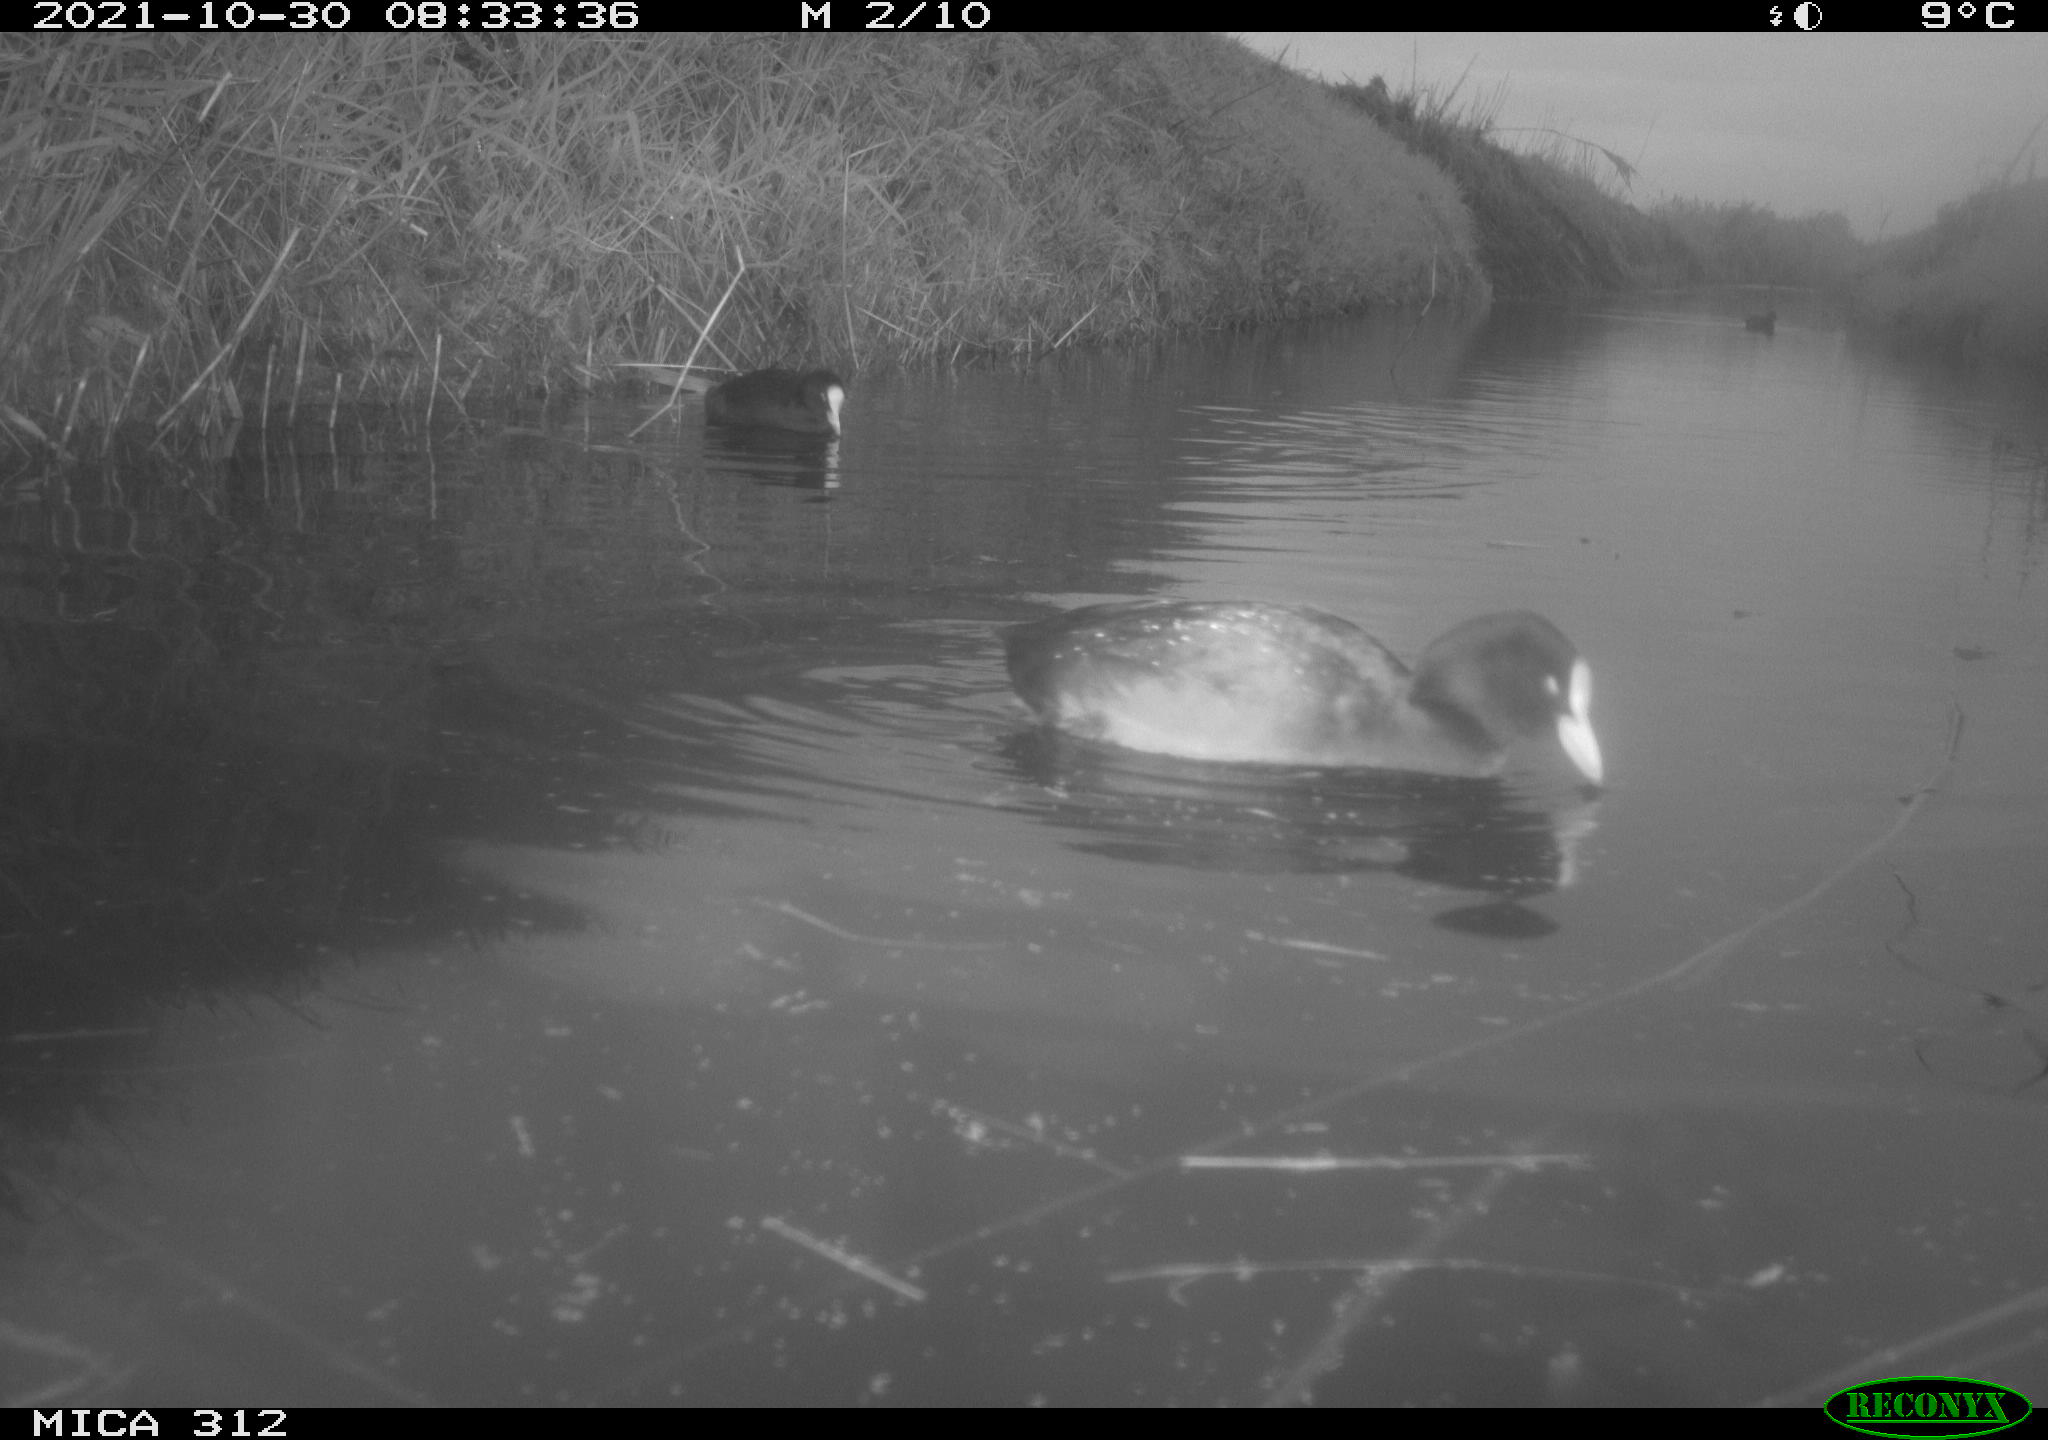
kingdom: Animalia
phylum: Chordata
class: Aves
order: Gruiformes
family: Rallidae
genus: Gallinula
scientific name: Gallinula chloropus
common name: Common moorhen
